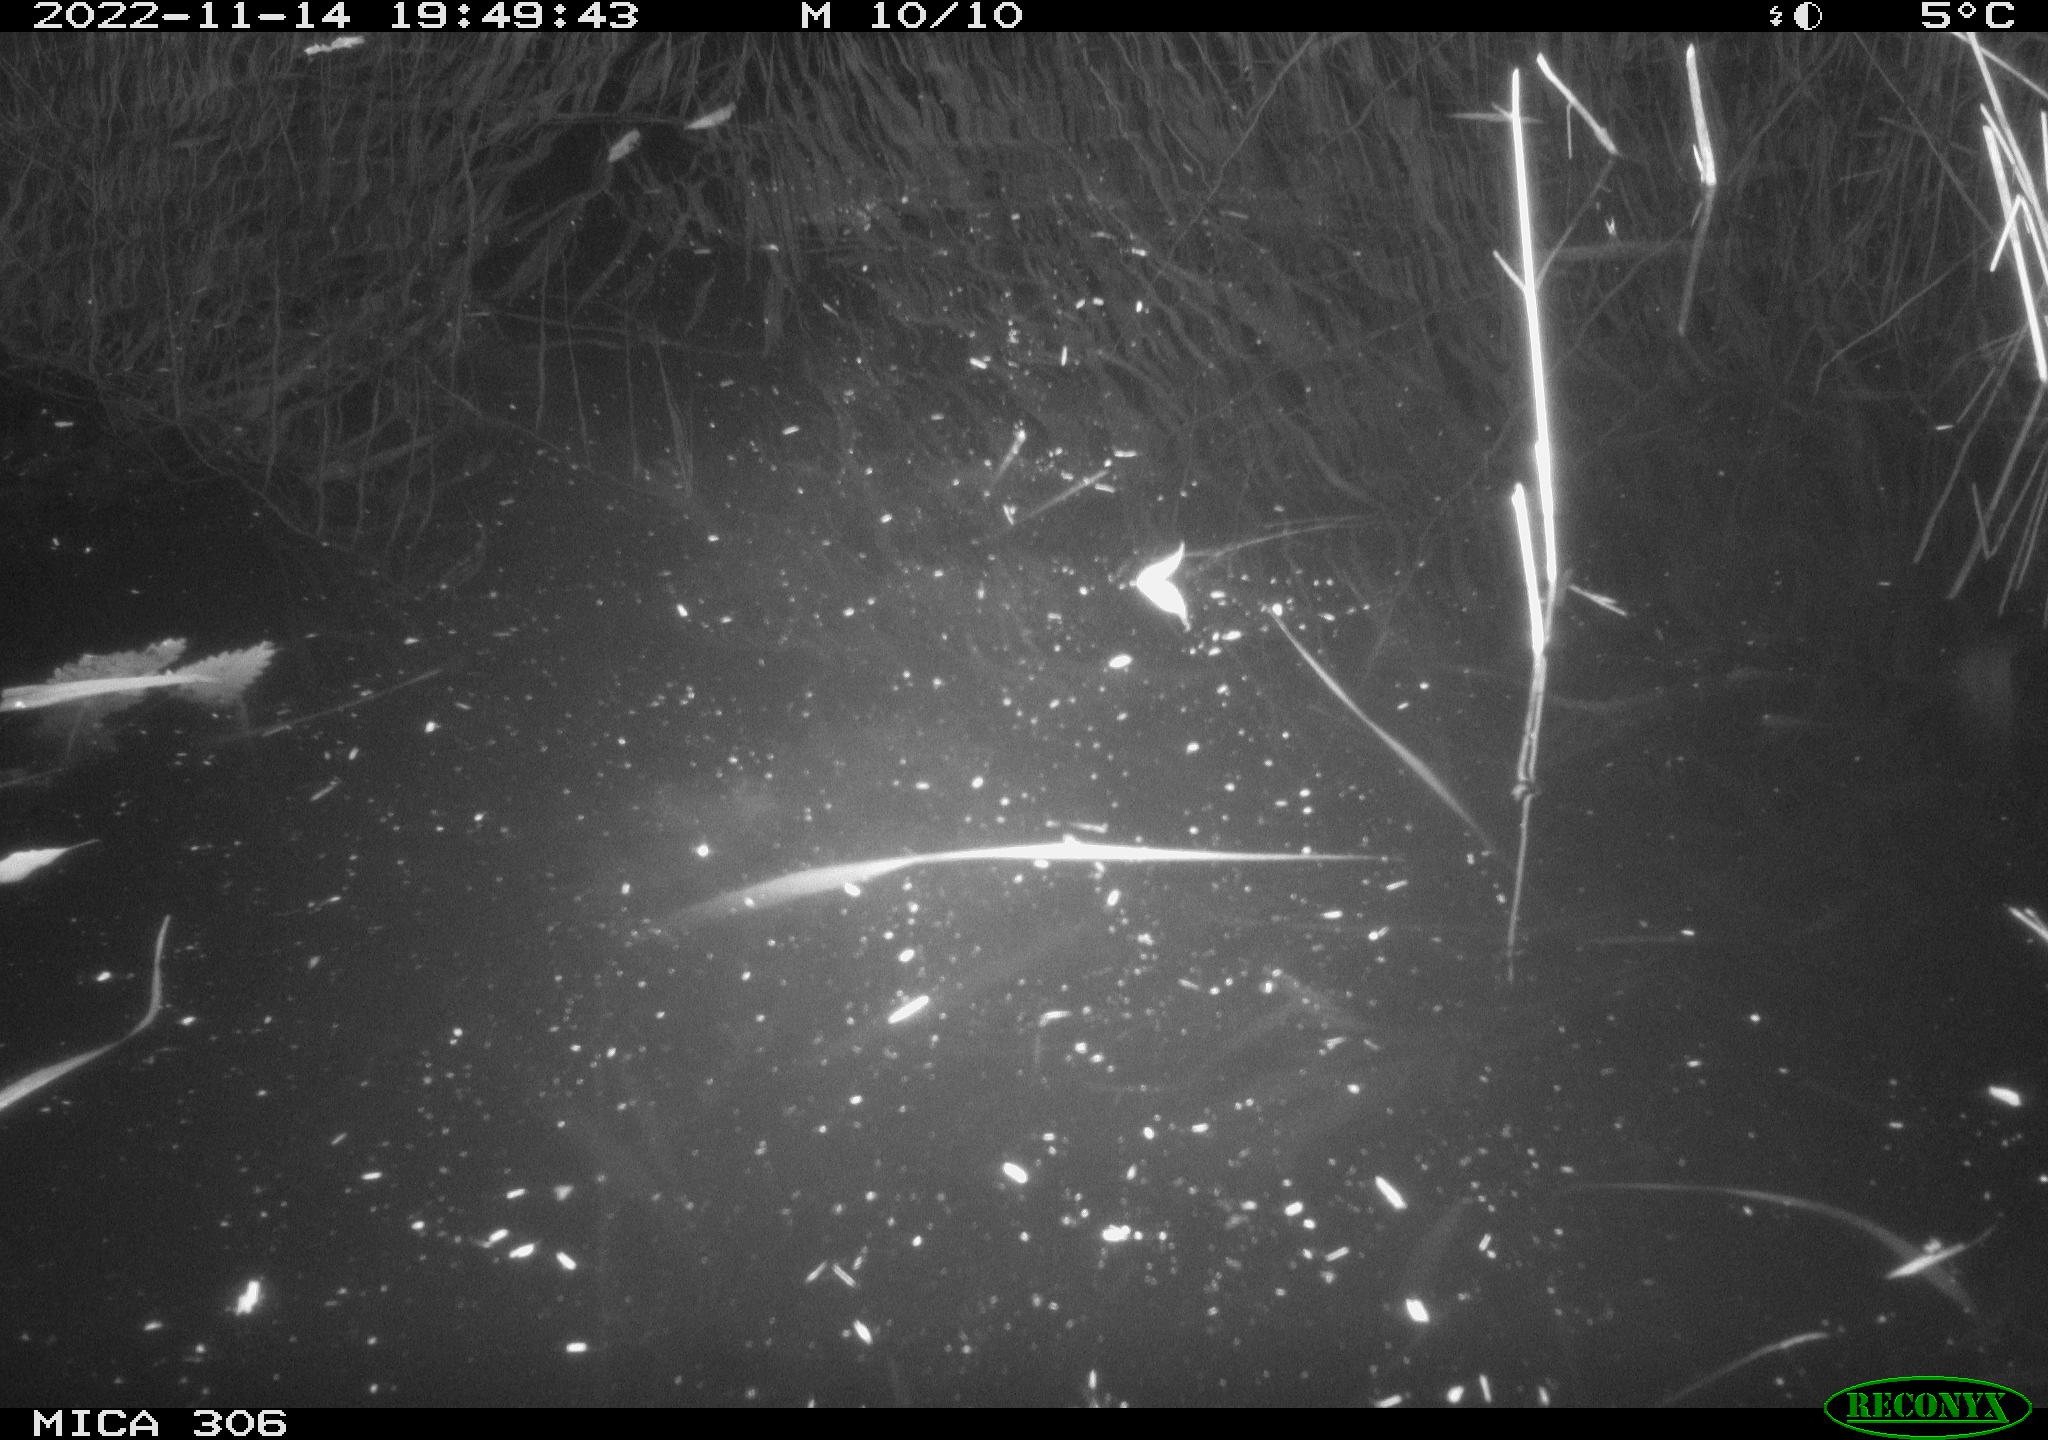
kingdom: Animalia
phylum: Chordata
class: Mammalia
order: Rodentia
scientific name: Rodentia
